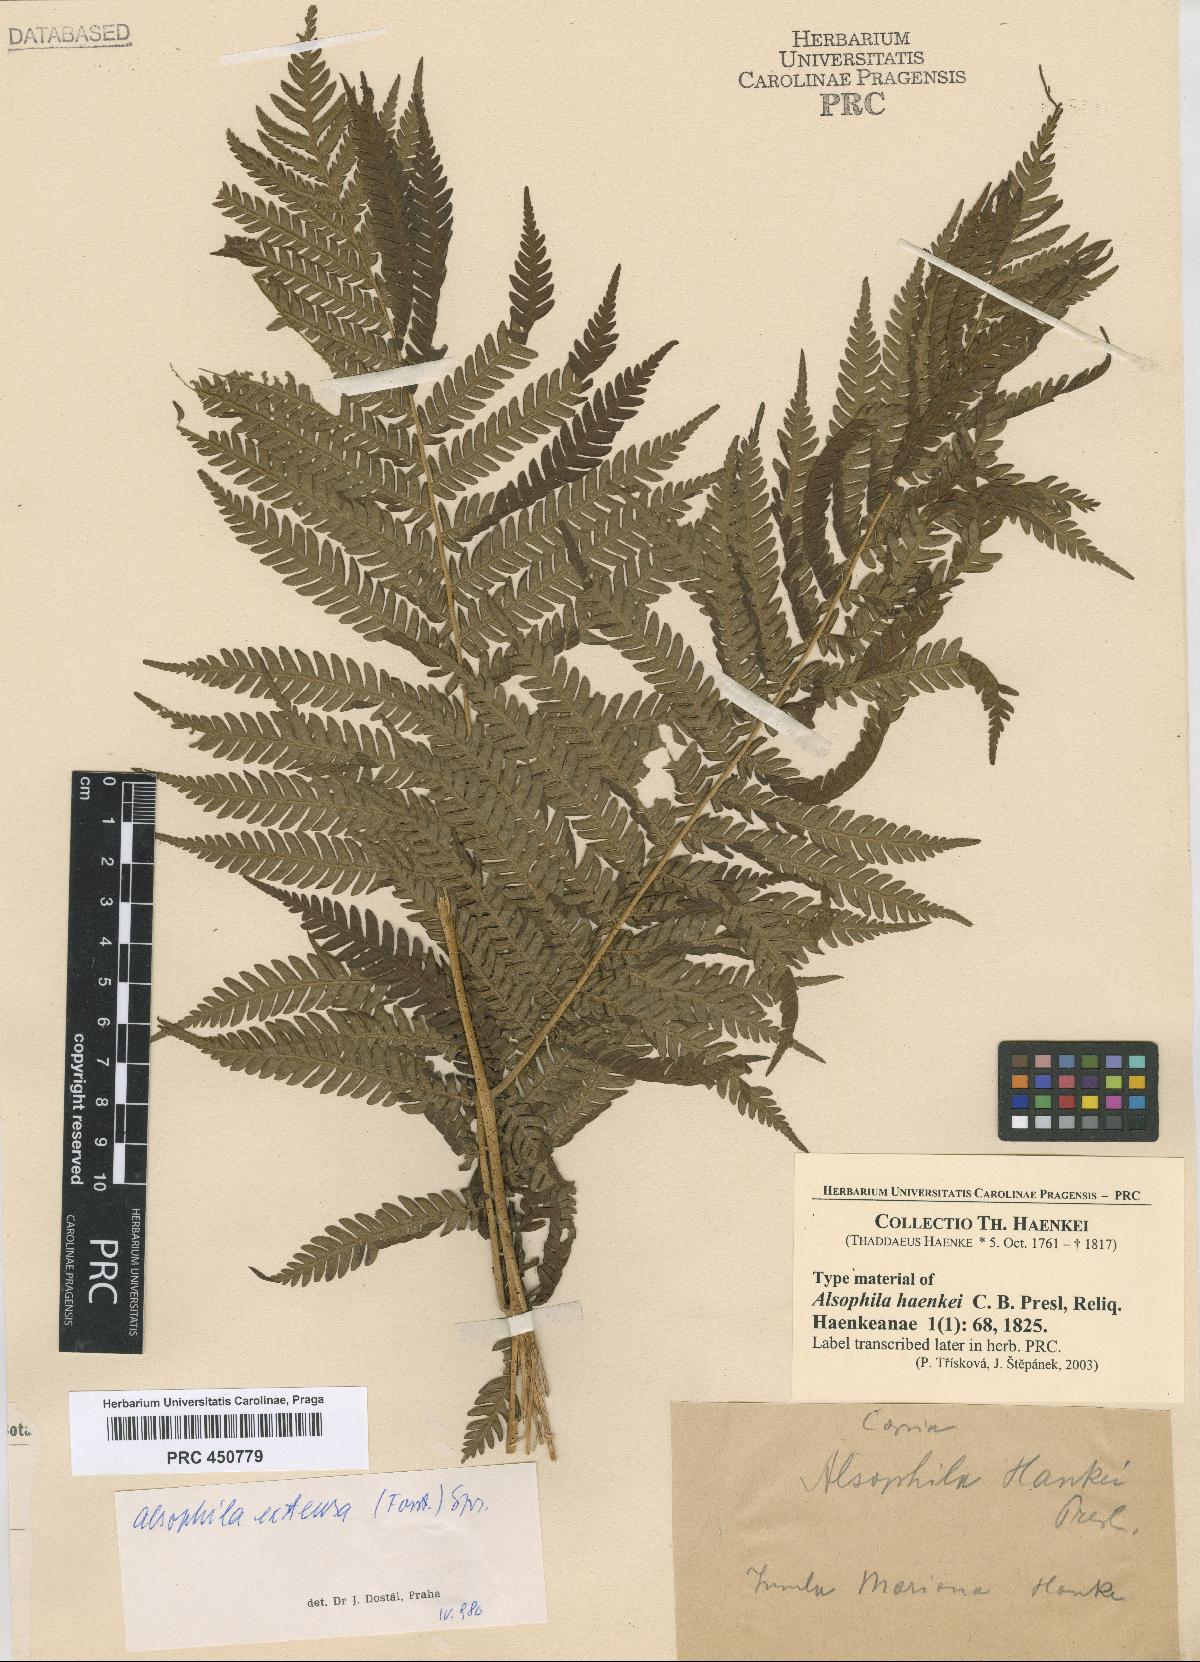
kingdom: Plantae
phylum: Tracheophyta
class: Polypodiopsida
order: Cyatheales
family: Cyatheaceae
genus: Alsophila
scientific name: Alsophila
